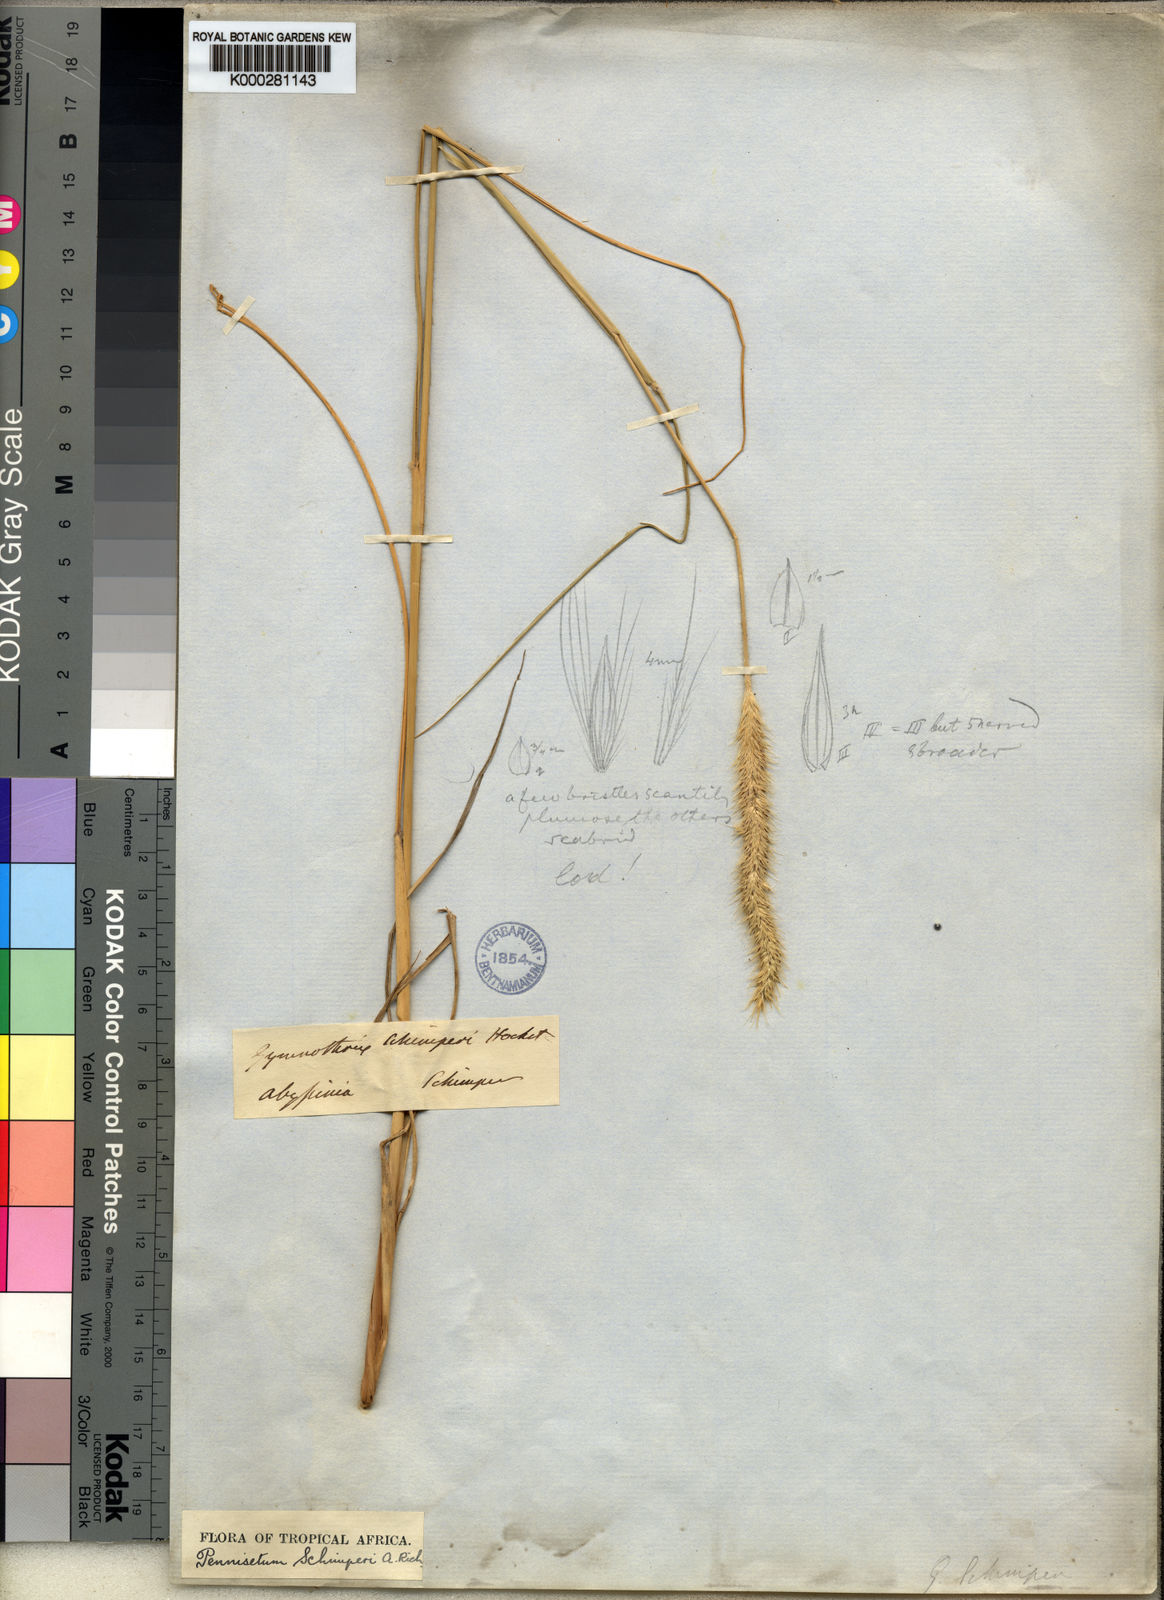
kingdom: Plantae
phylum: Tracheophyta
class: Liliopsida
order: Poales
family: Poaceae
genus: Cenchrus
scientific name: Cenchrus Pennisetum spec
